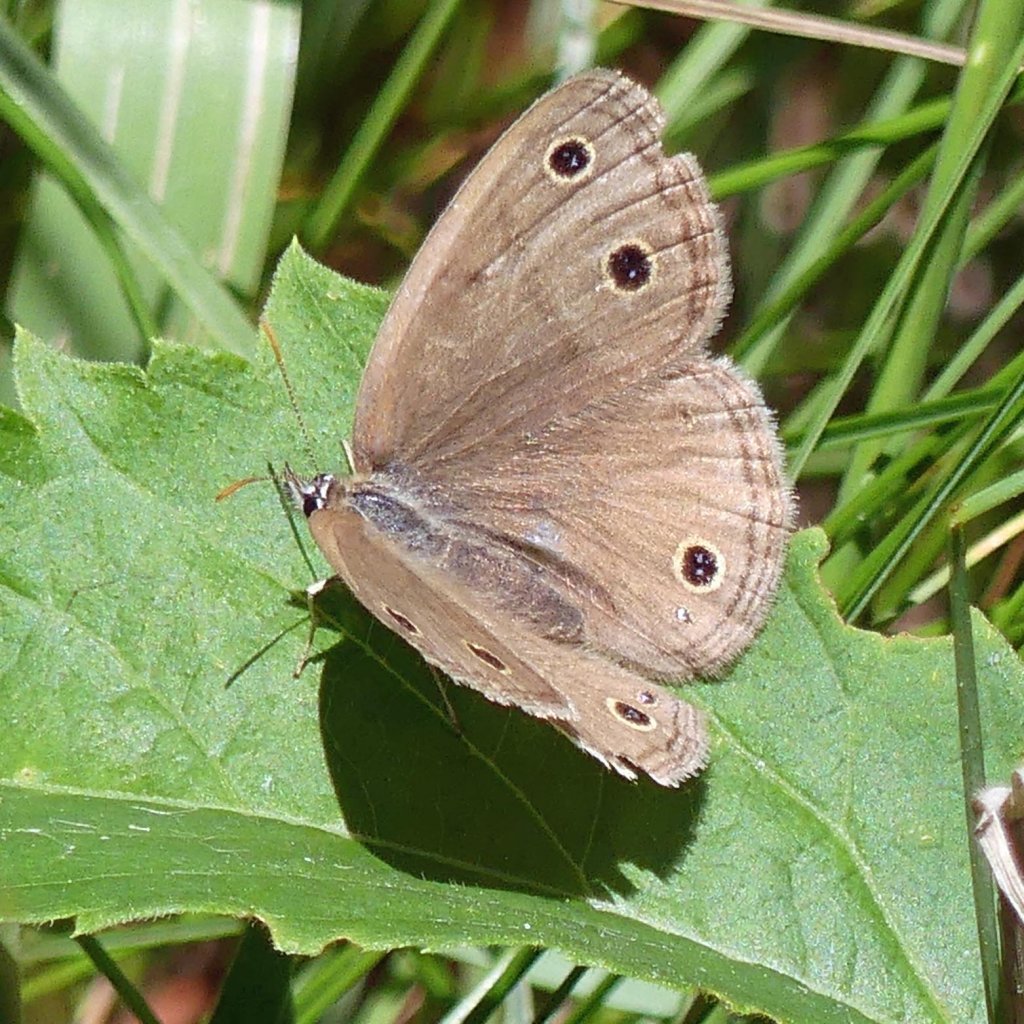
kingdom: Animalia
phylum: Arthropoda
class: Insecta
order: Lepidoptera
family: Nymphalidae
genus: Euptychia
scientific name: Euptychia cymela
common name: Little Wood Satyr
